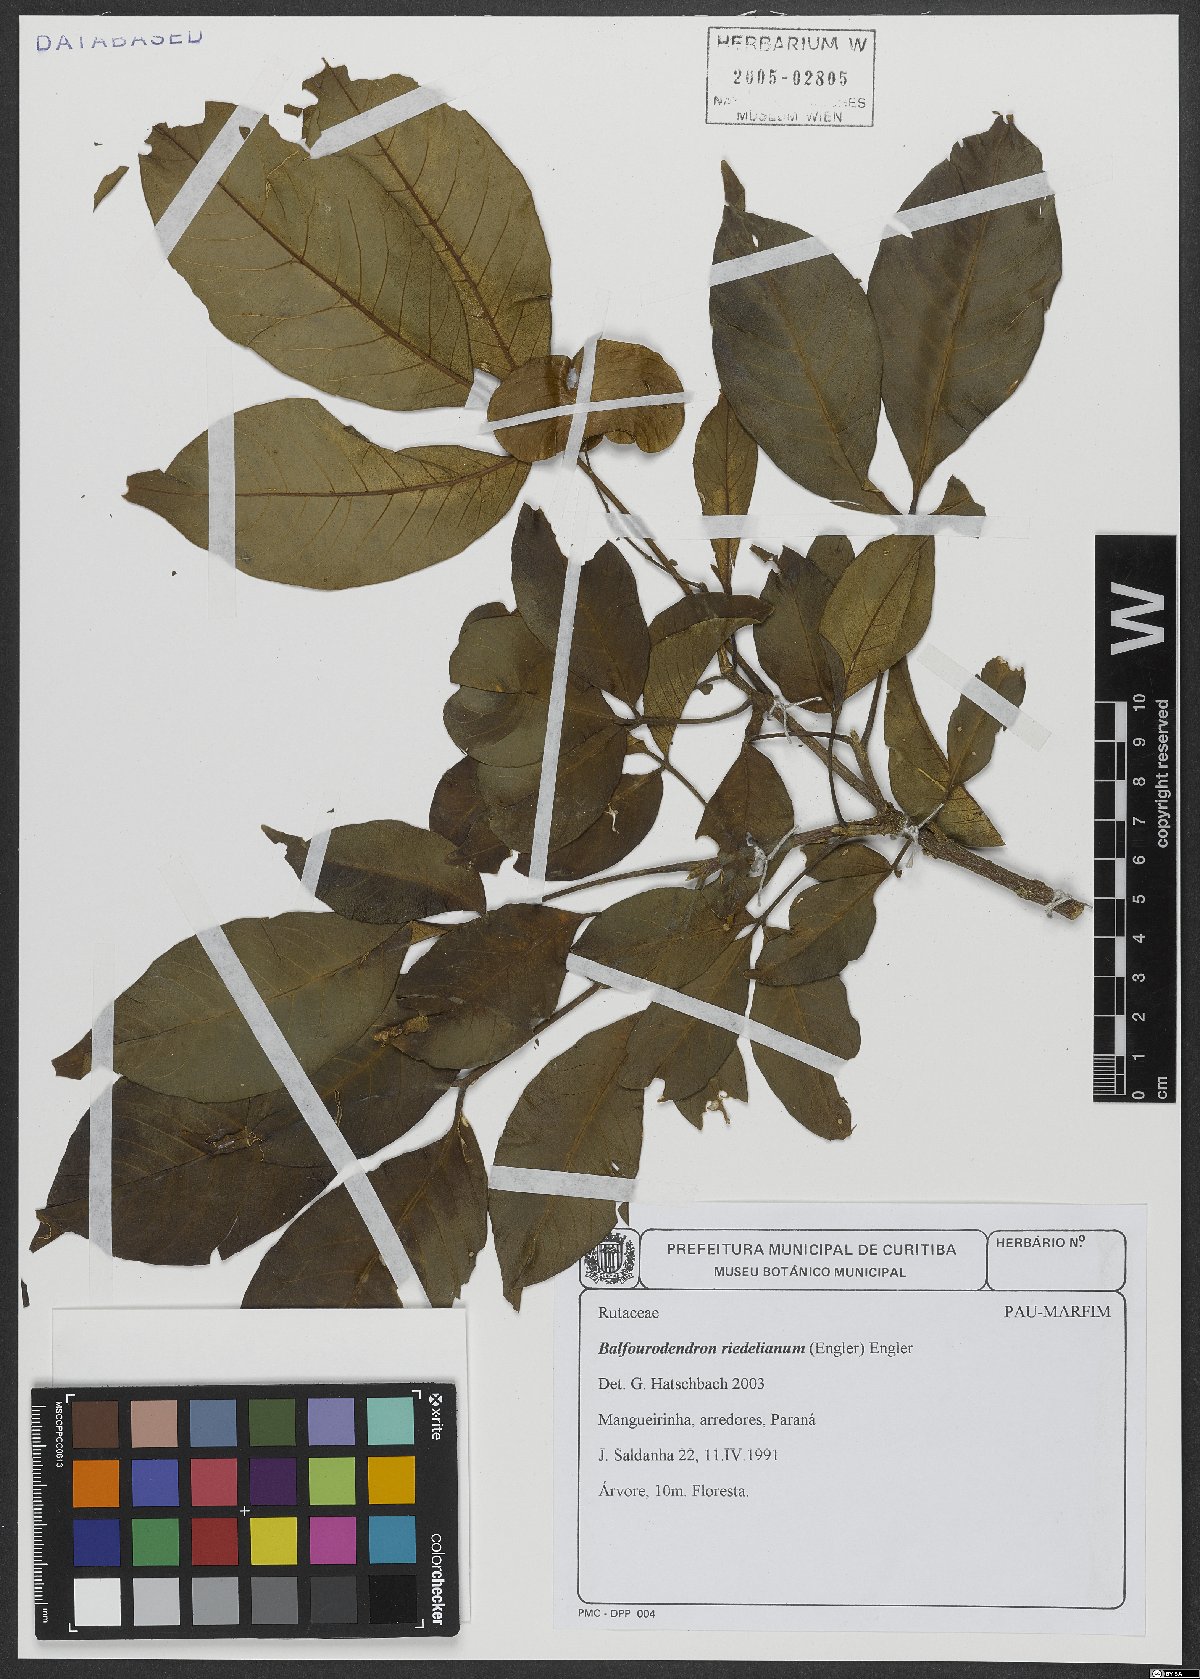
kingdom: Plantae
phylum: Tracheophyta
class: Magnoliopsida
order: Sapindales
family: Rutaceae
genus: Balfourodendron
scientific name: Balfourodendron riedelianum
